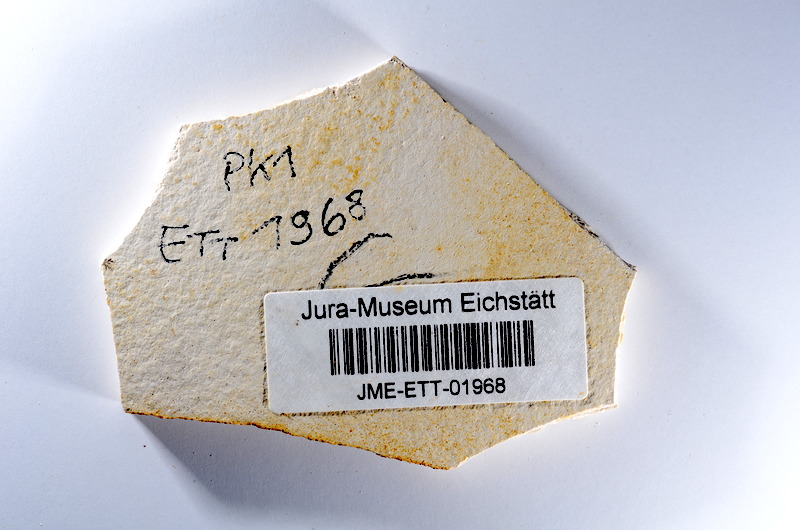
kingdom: Animalia
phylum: Chordata
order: Salmoniformes
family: Orthogonikleithridae
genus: Orthogonikleithrus
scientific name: Orthogonikleithrus hoelli
